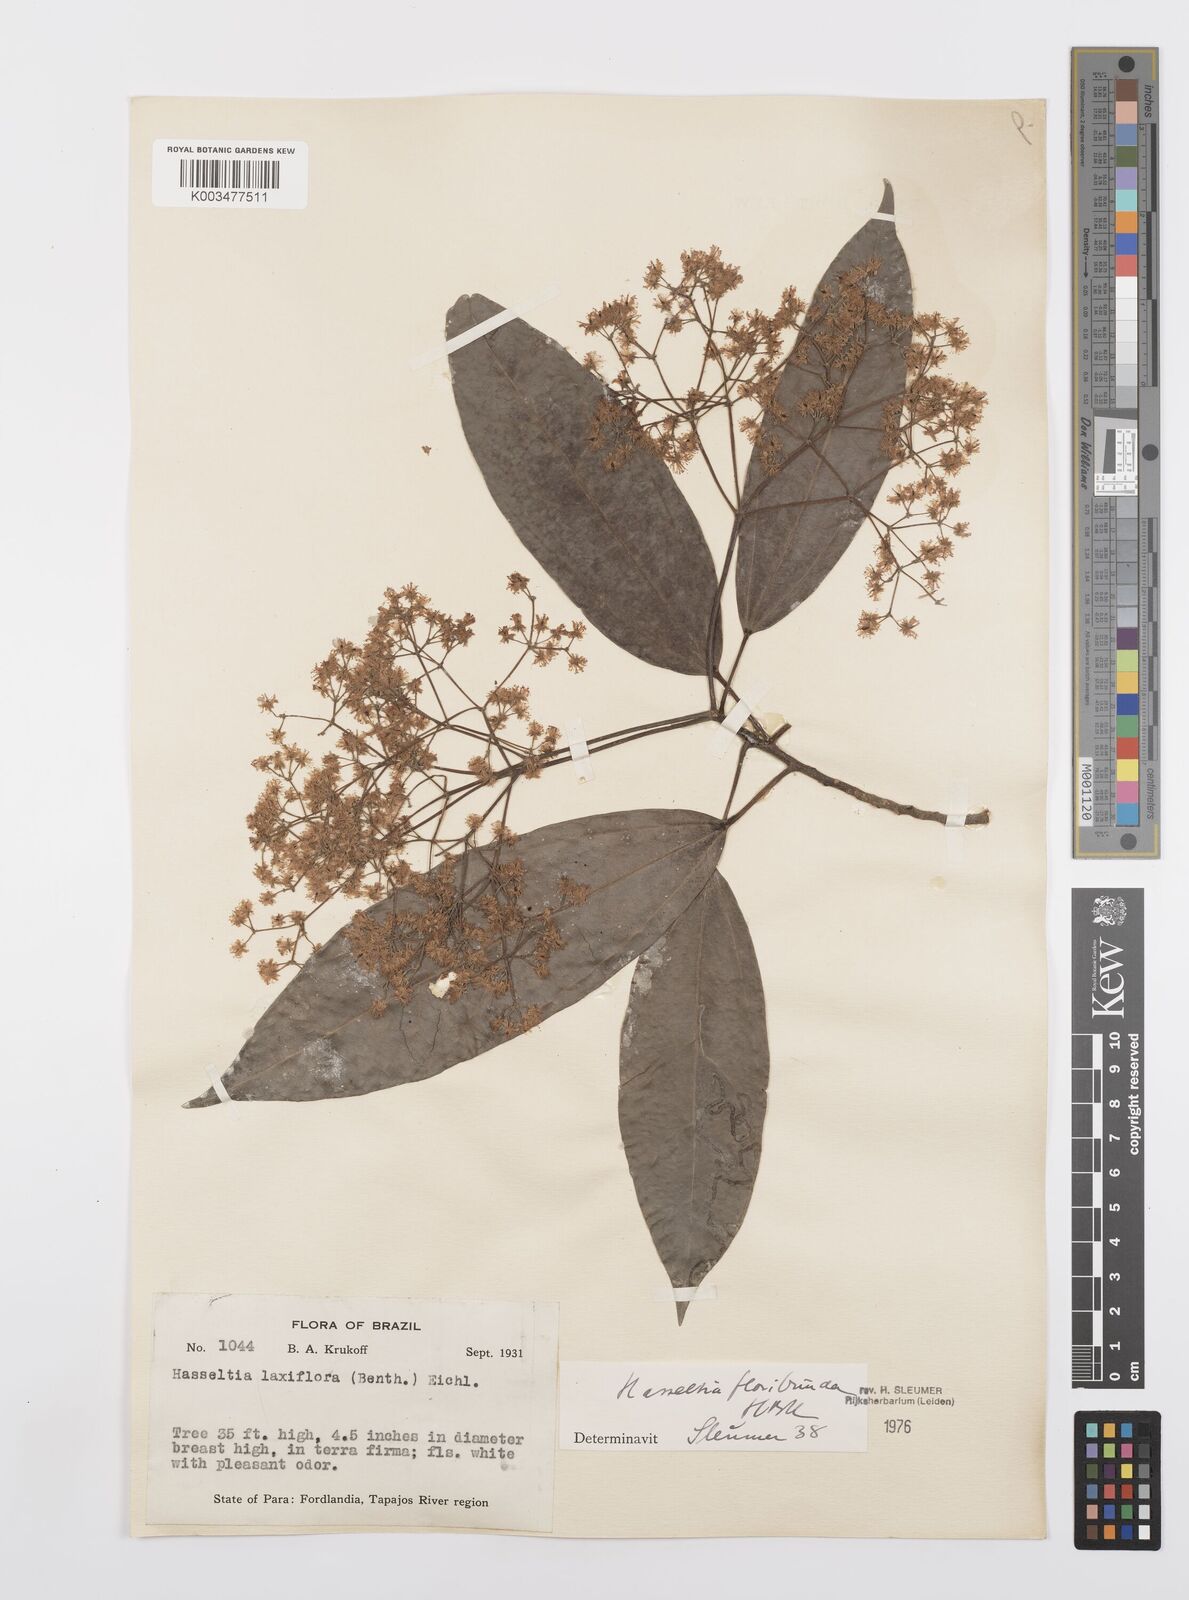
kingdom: Plantae
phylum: Tracheophyta
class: Magnoliopsida
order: Malpighiales
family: Salicaceae
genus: Hasseltia
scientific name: Hasseltia floribunda
